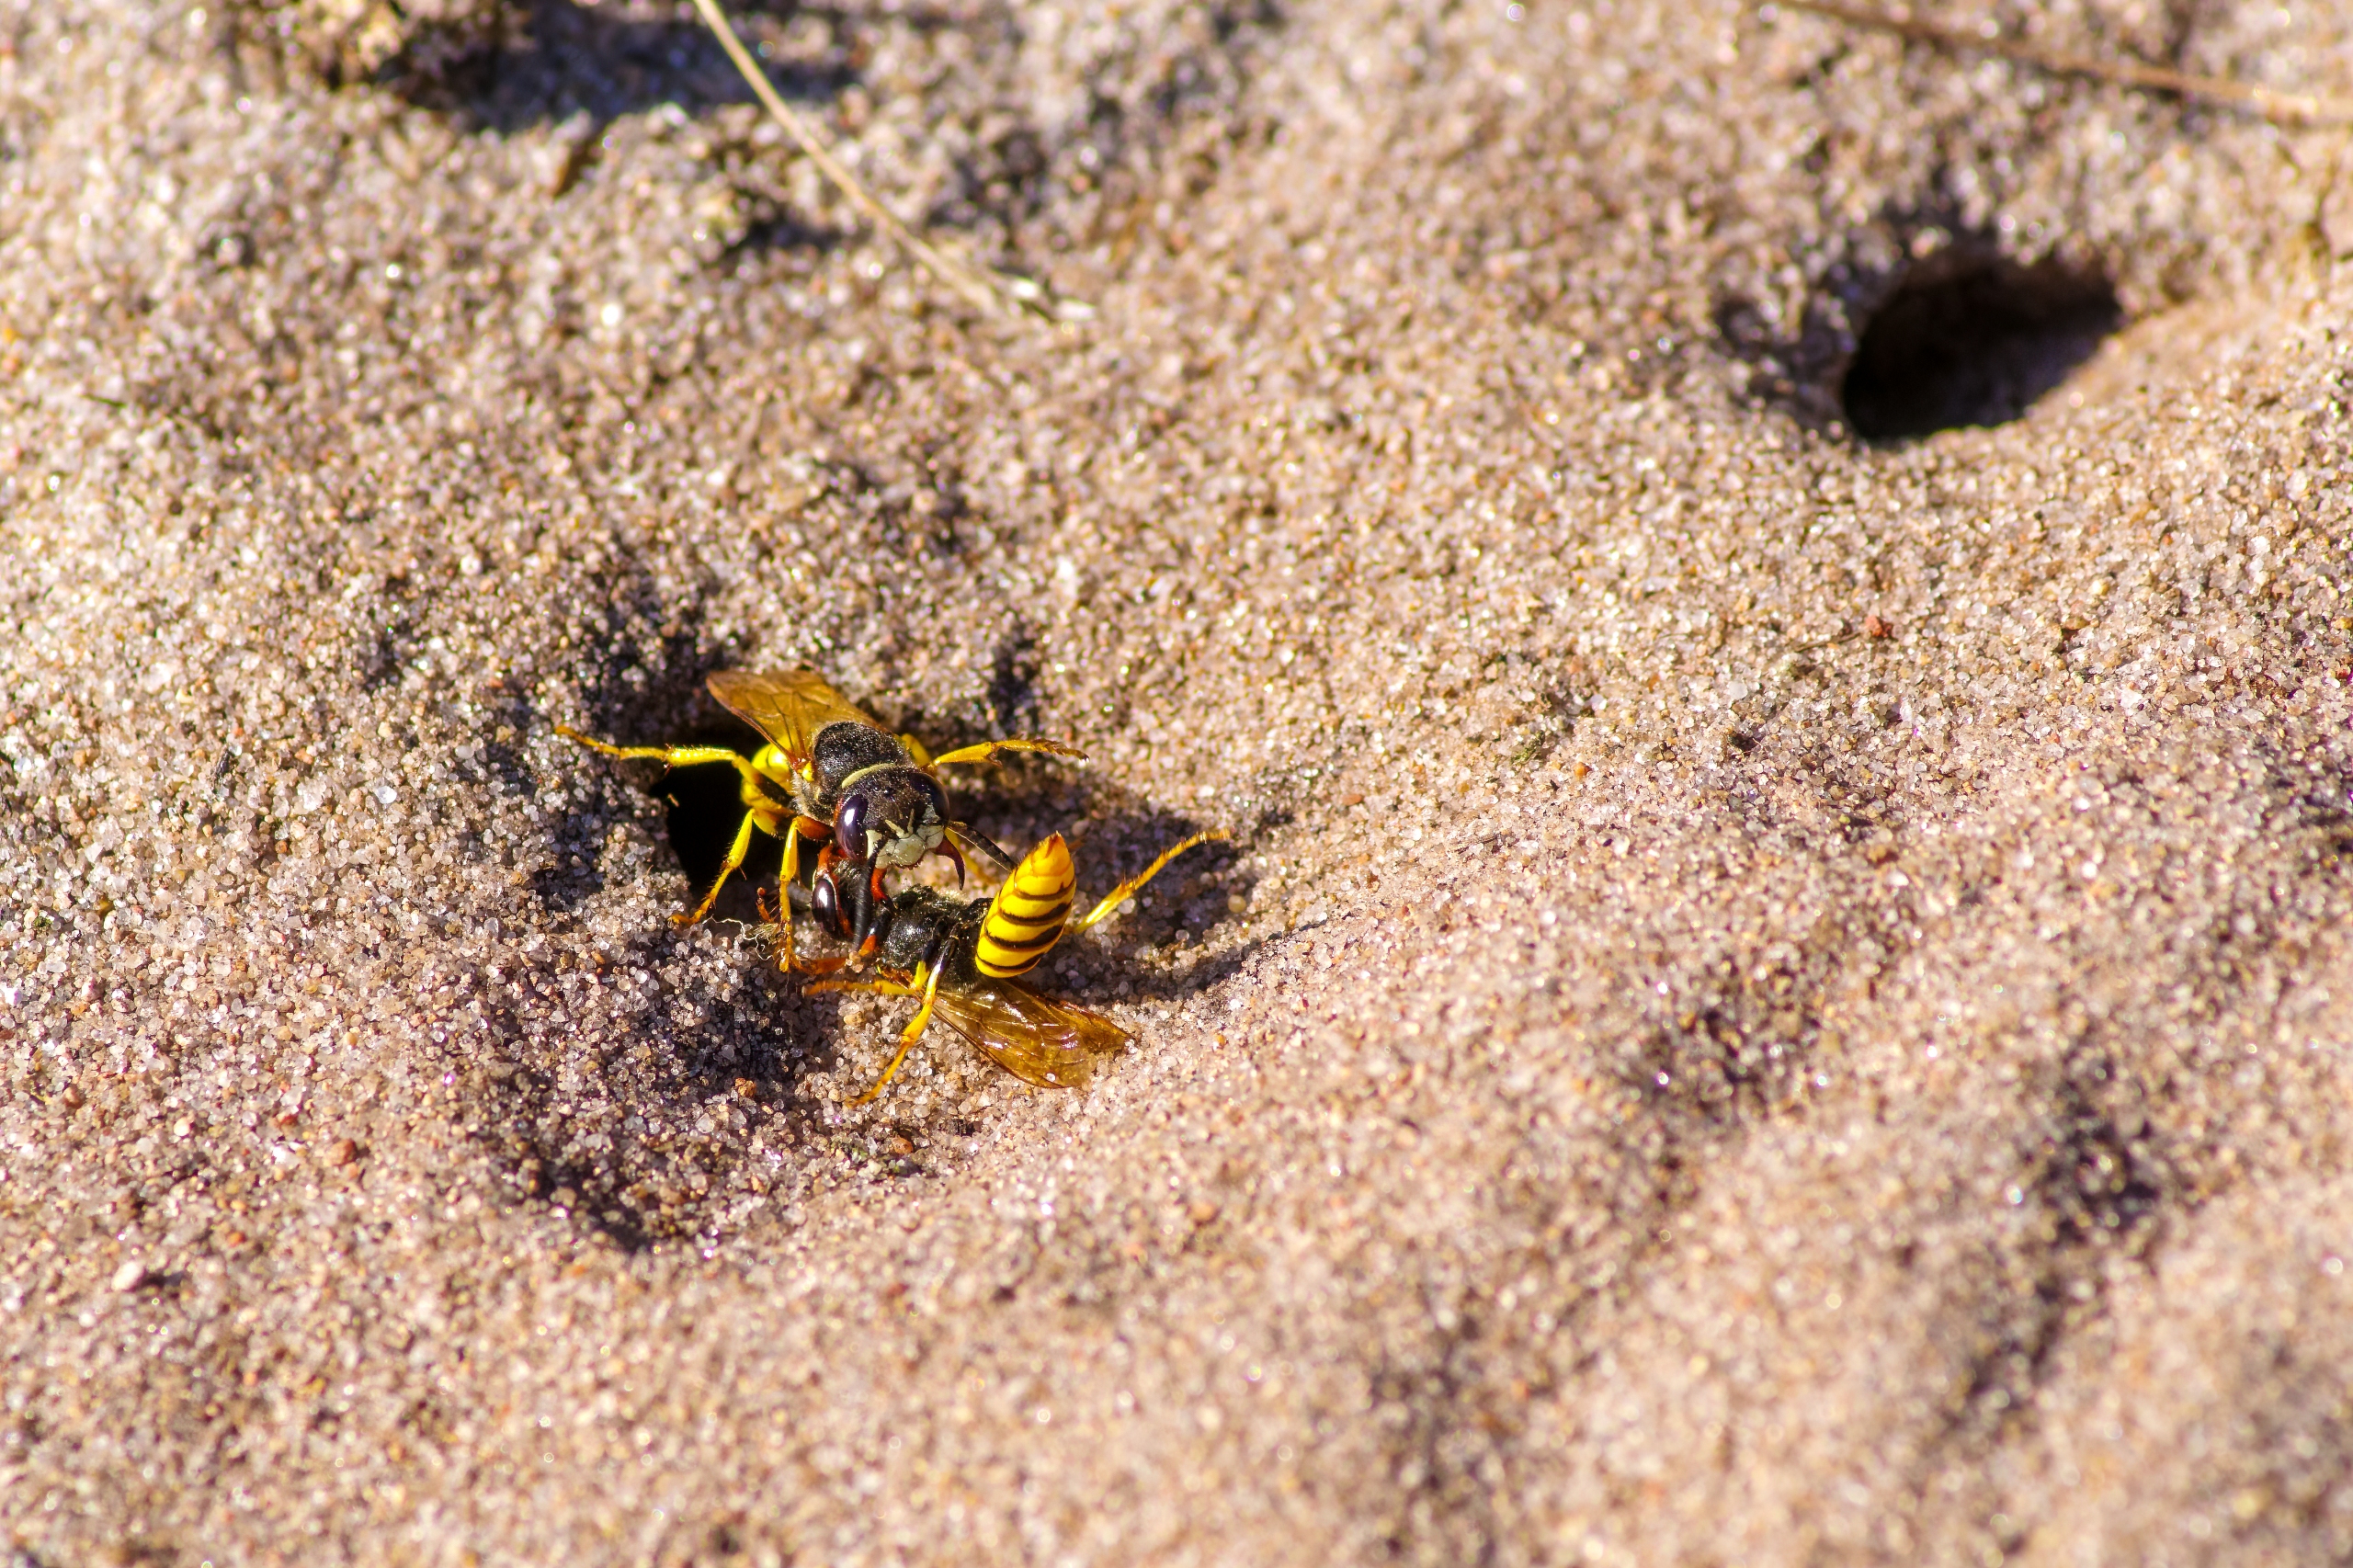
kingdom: Animalia
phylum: Arthropoda
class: Insecta
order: Hymenoptera
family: Crabronidae
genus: Philanthus
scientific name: Philanthus triangulum
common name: Biulv
